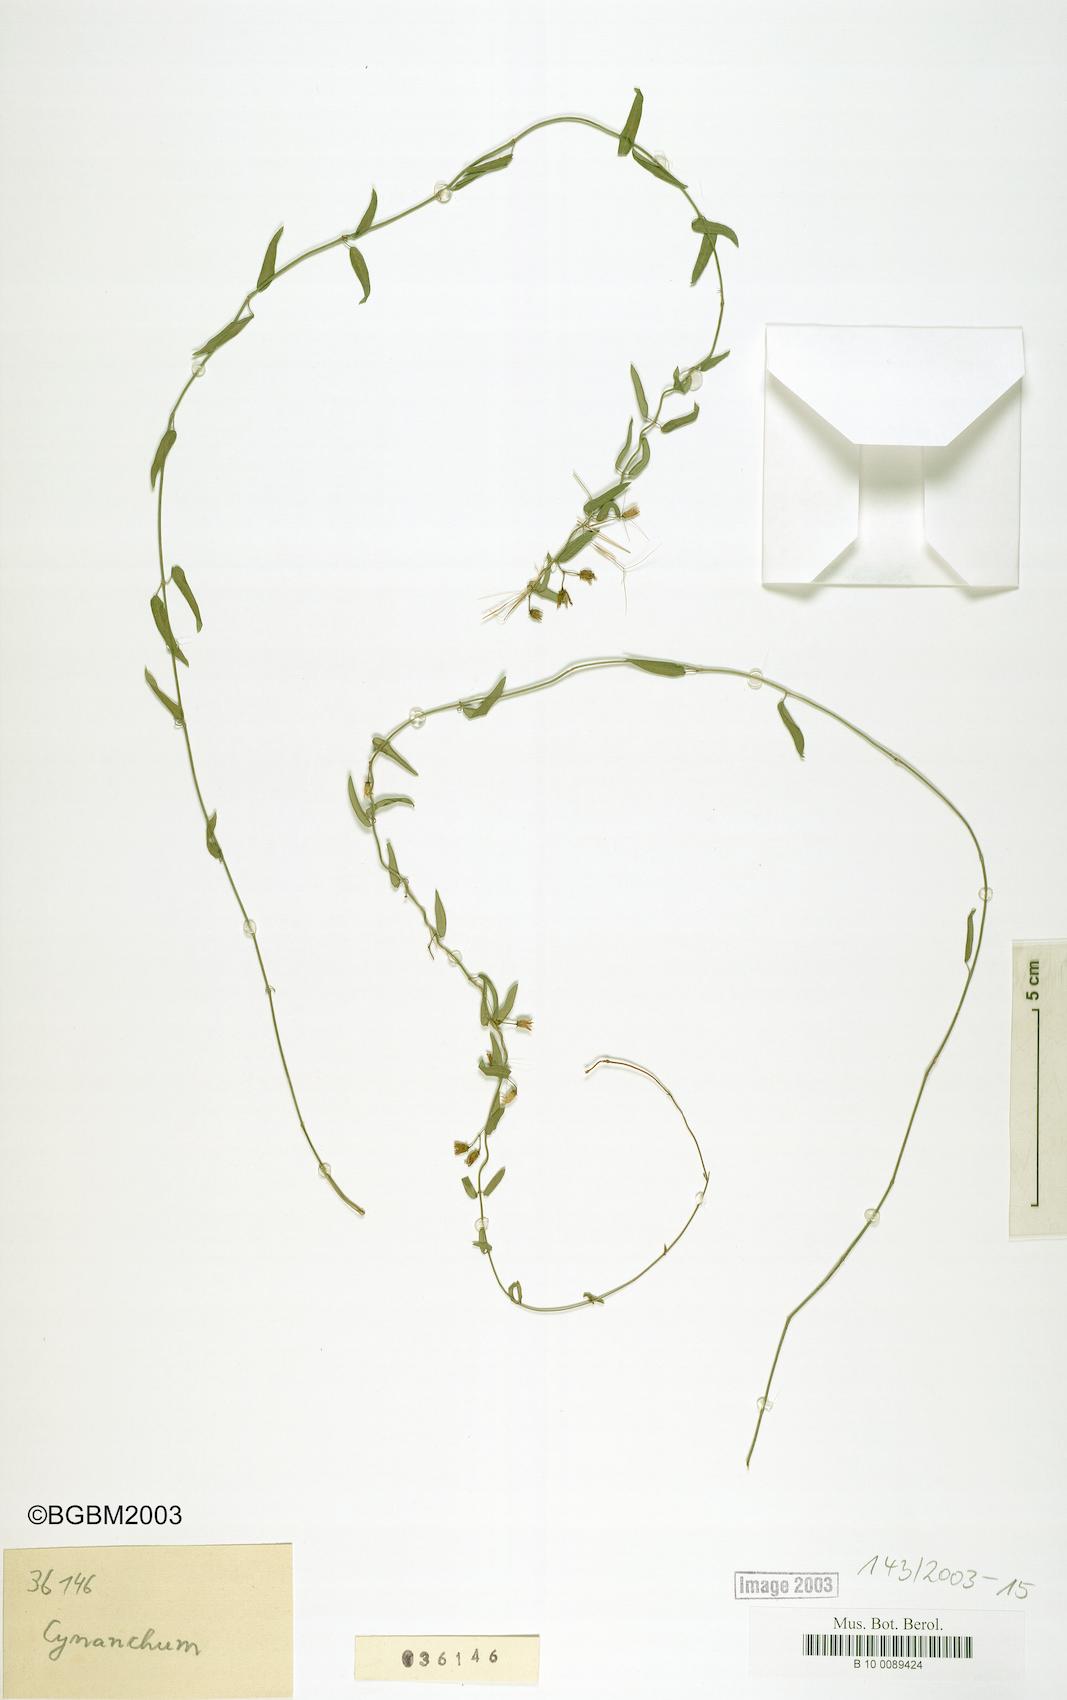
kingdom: Plantae
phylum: Tracheophyta
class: Magnoliopsida
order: Gentianales
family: Apocynaceae
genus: Metastelma
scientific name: Metastelma cubense
